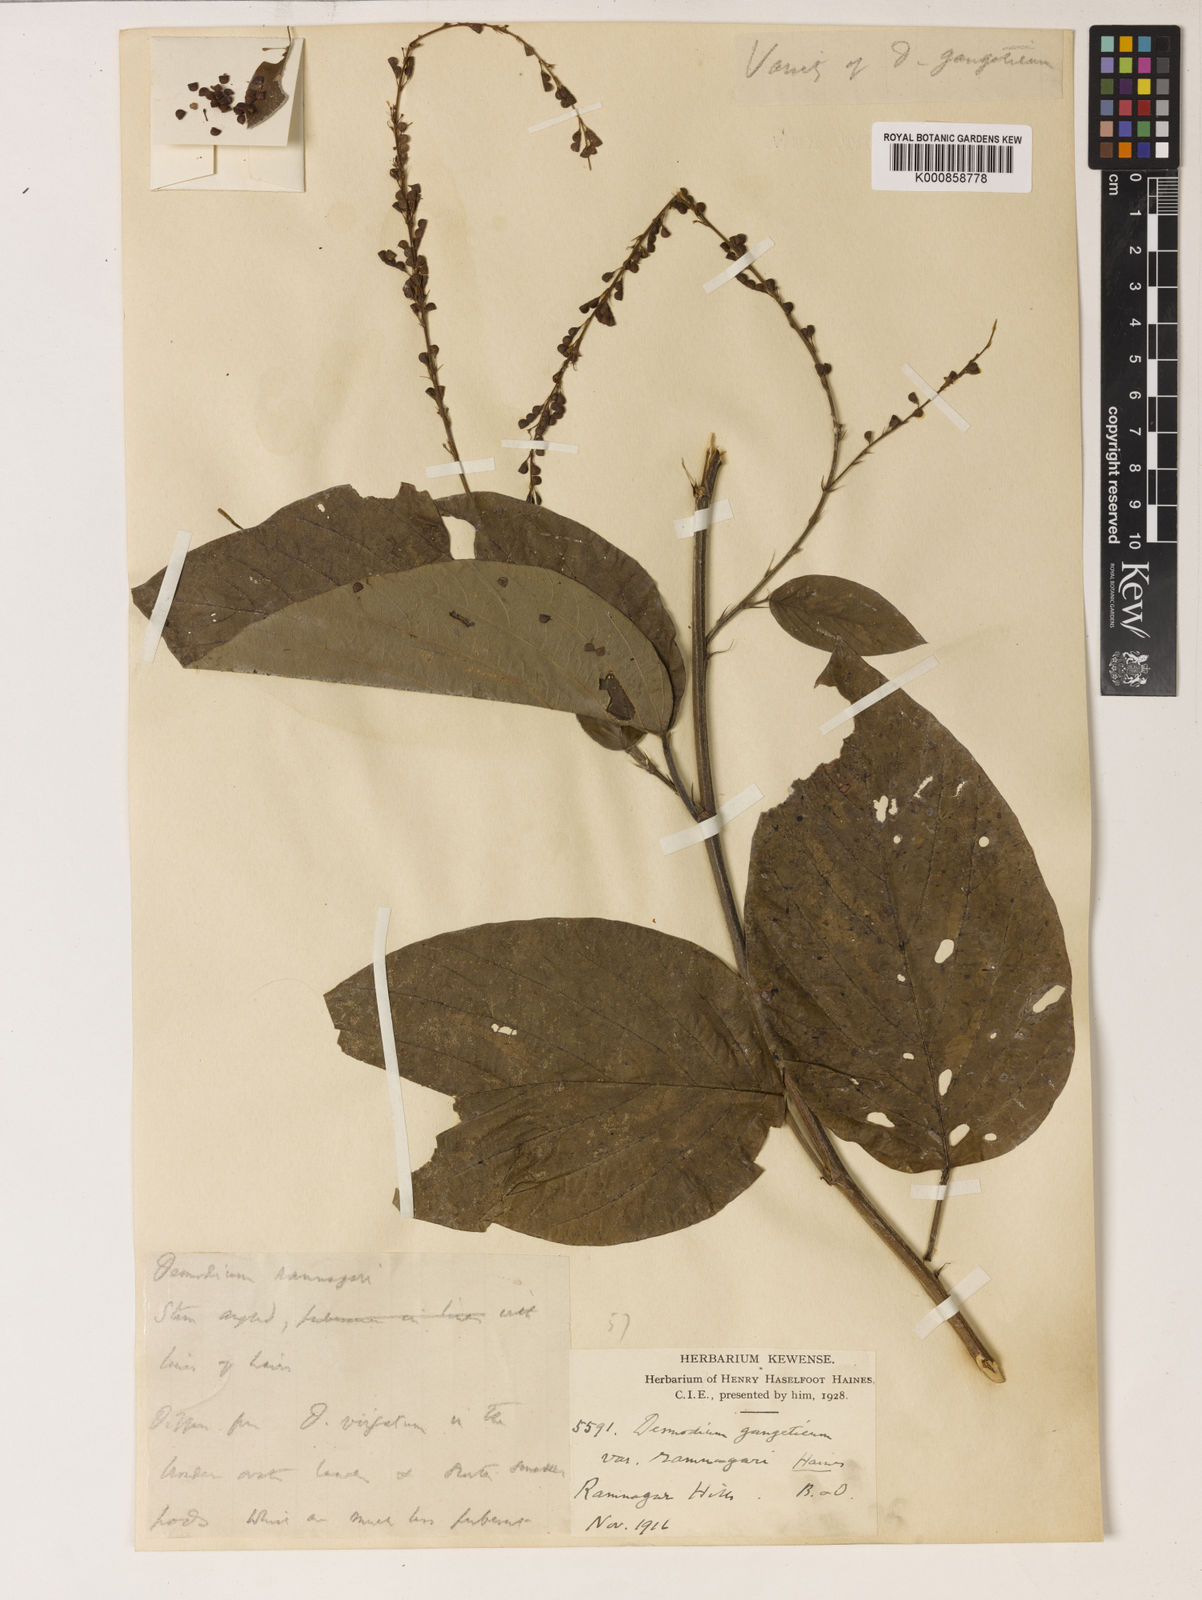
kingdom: Plantae
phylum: Tracheophyta
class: Magnoliopsida
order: Fabales
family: Fabaceae
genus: Pleurolobus
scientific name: Pleurolobus gangeticus
